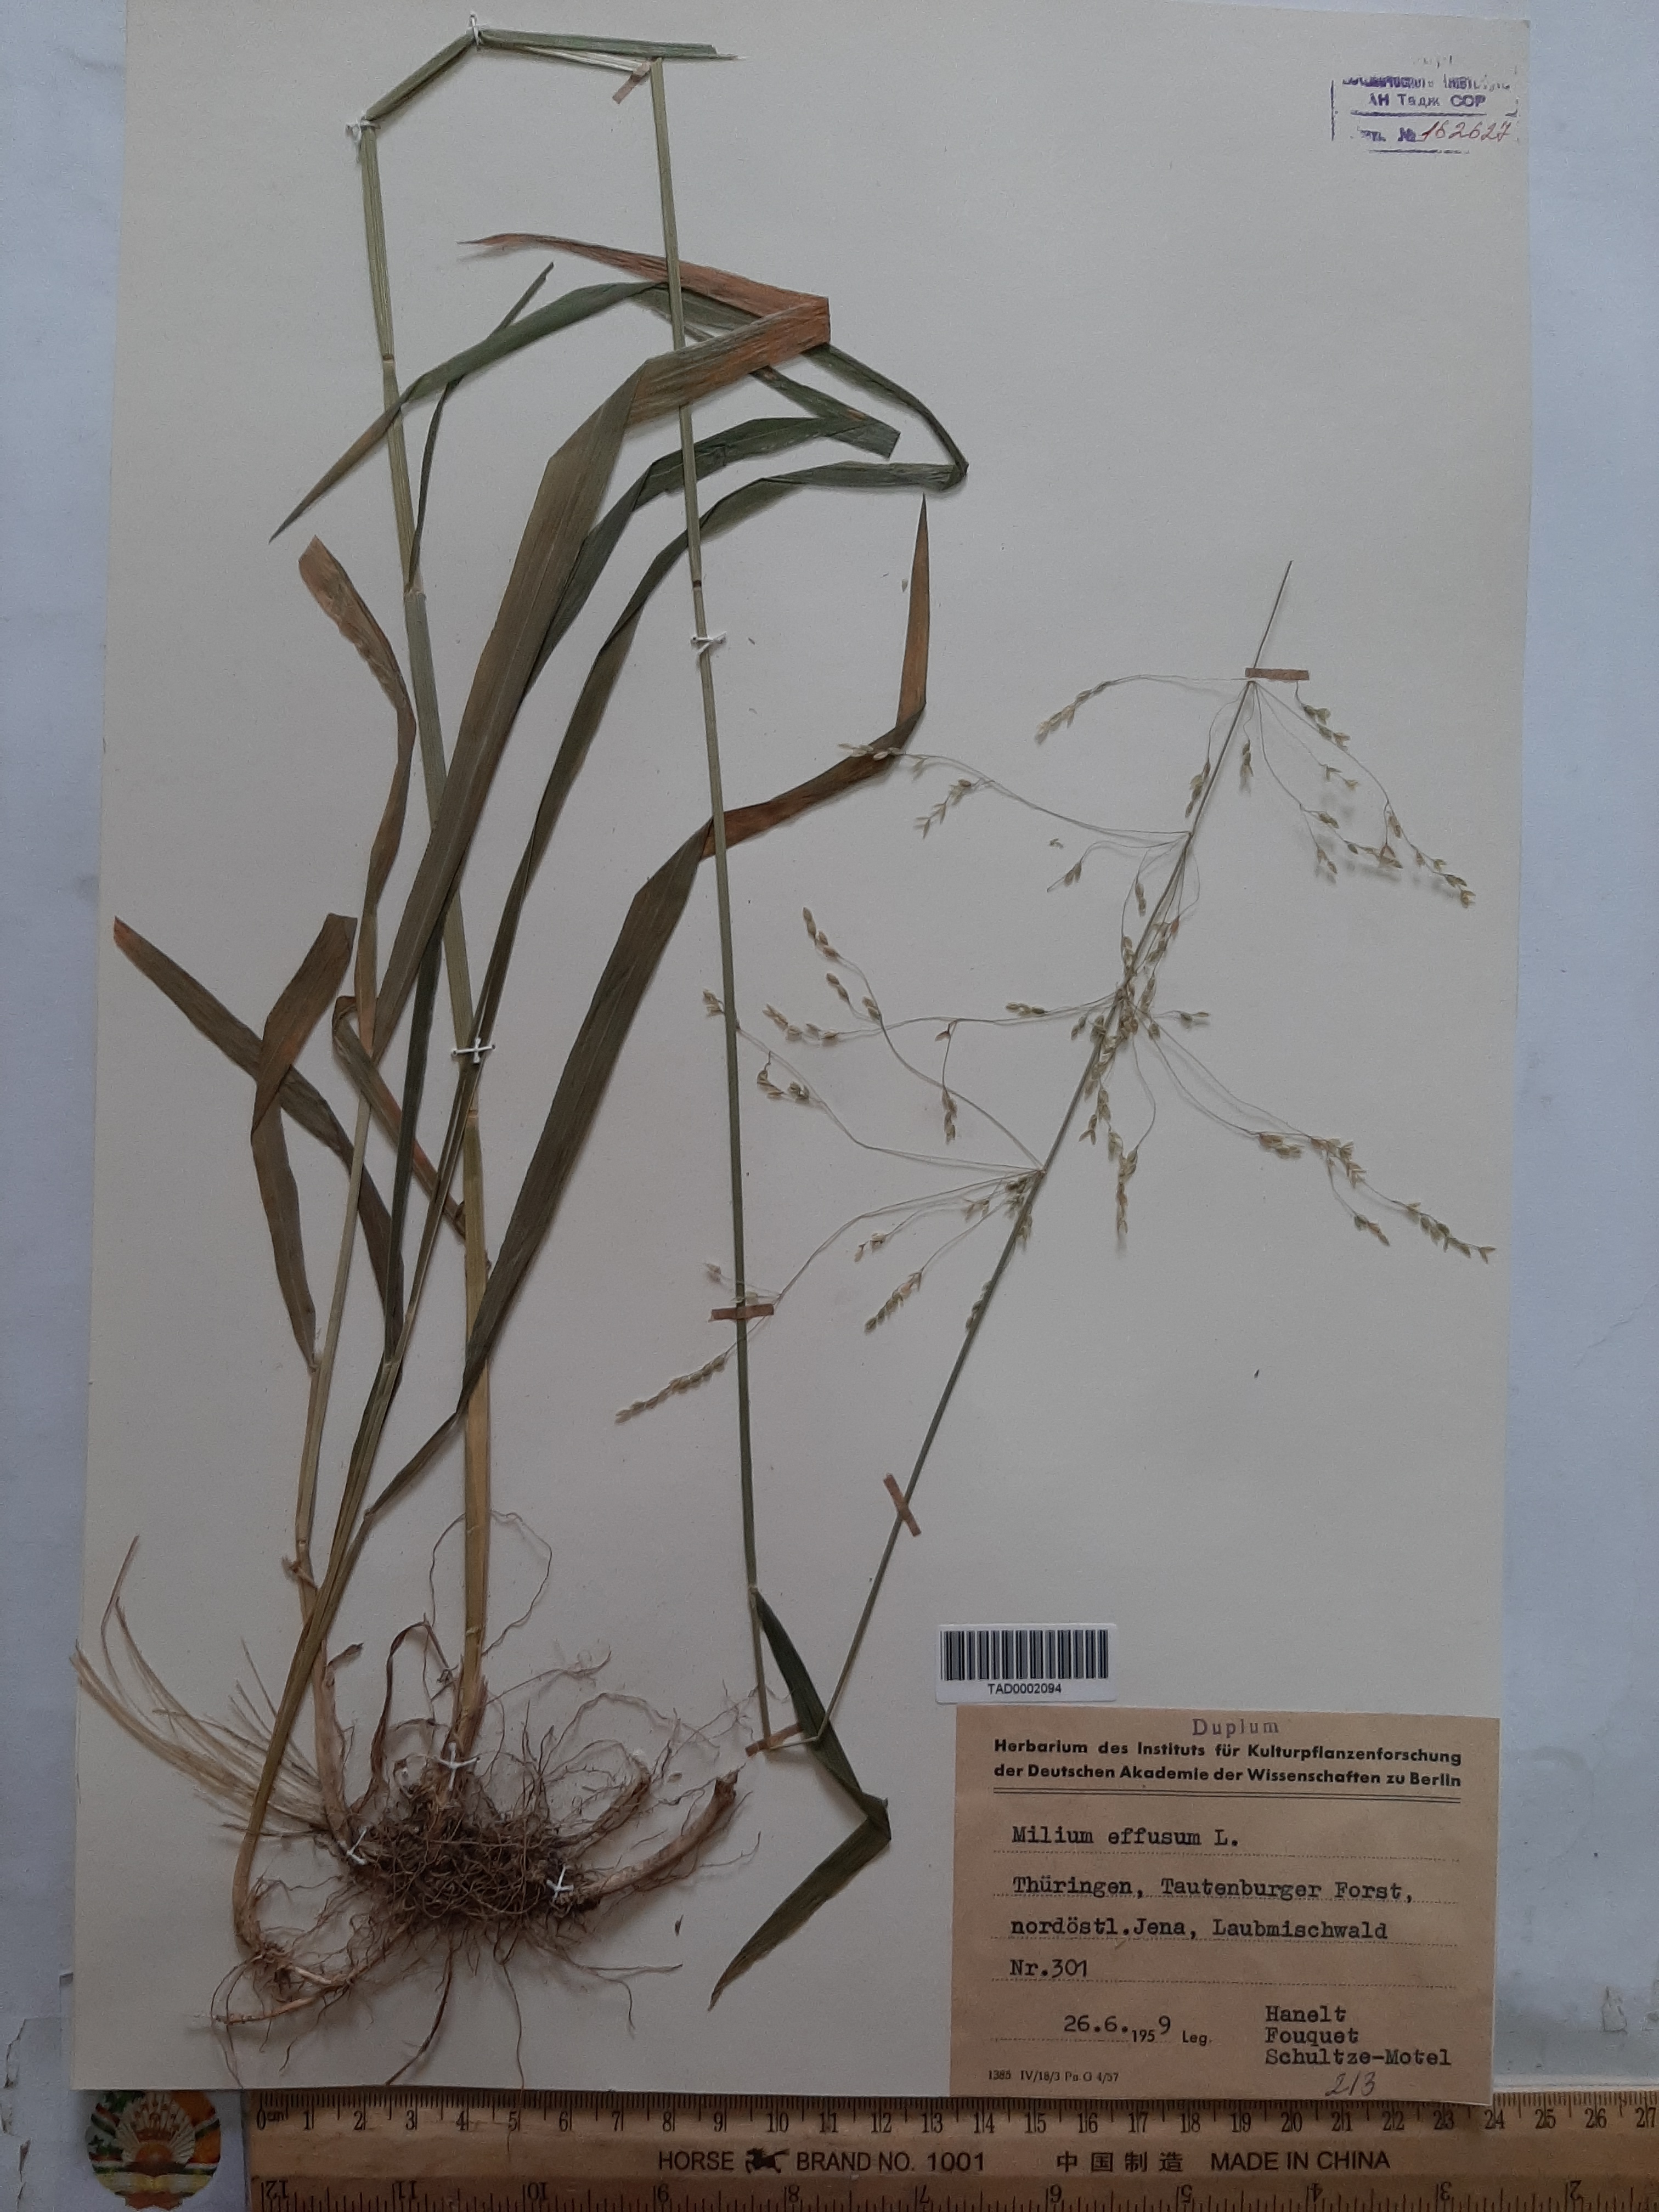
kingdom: Plantae
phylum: Tracheophyta
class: Liliopsida
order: Poales
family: Poaceae
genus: Milium
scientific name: Milium effusum
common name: Wood millet
